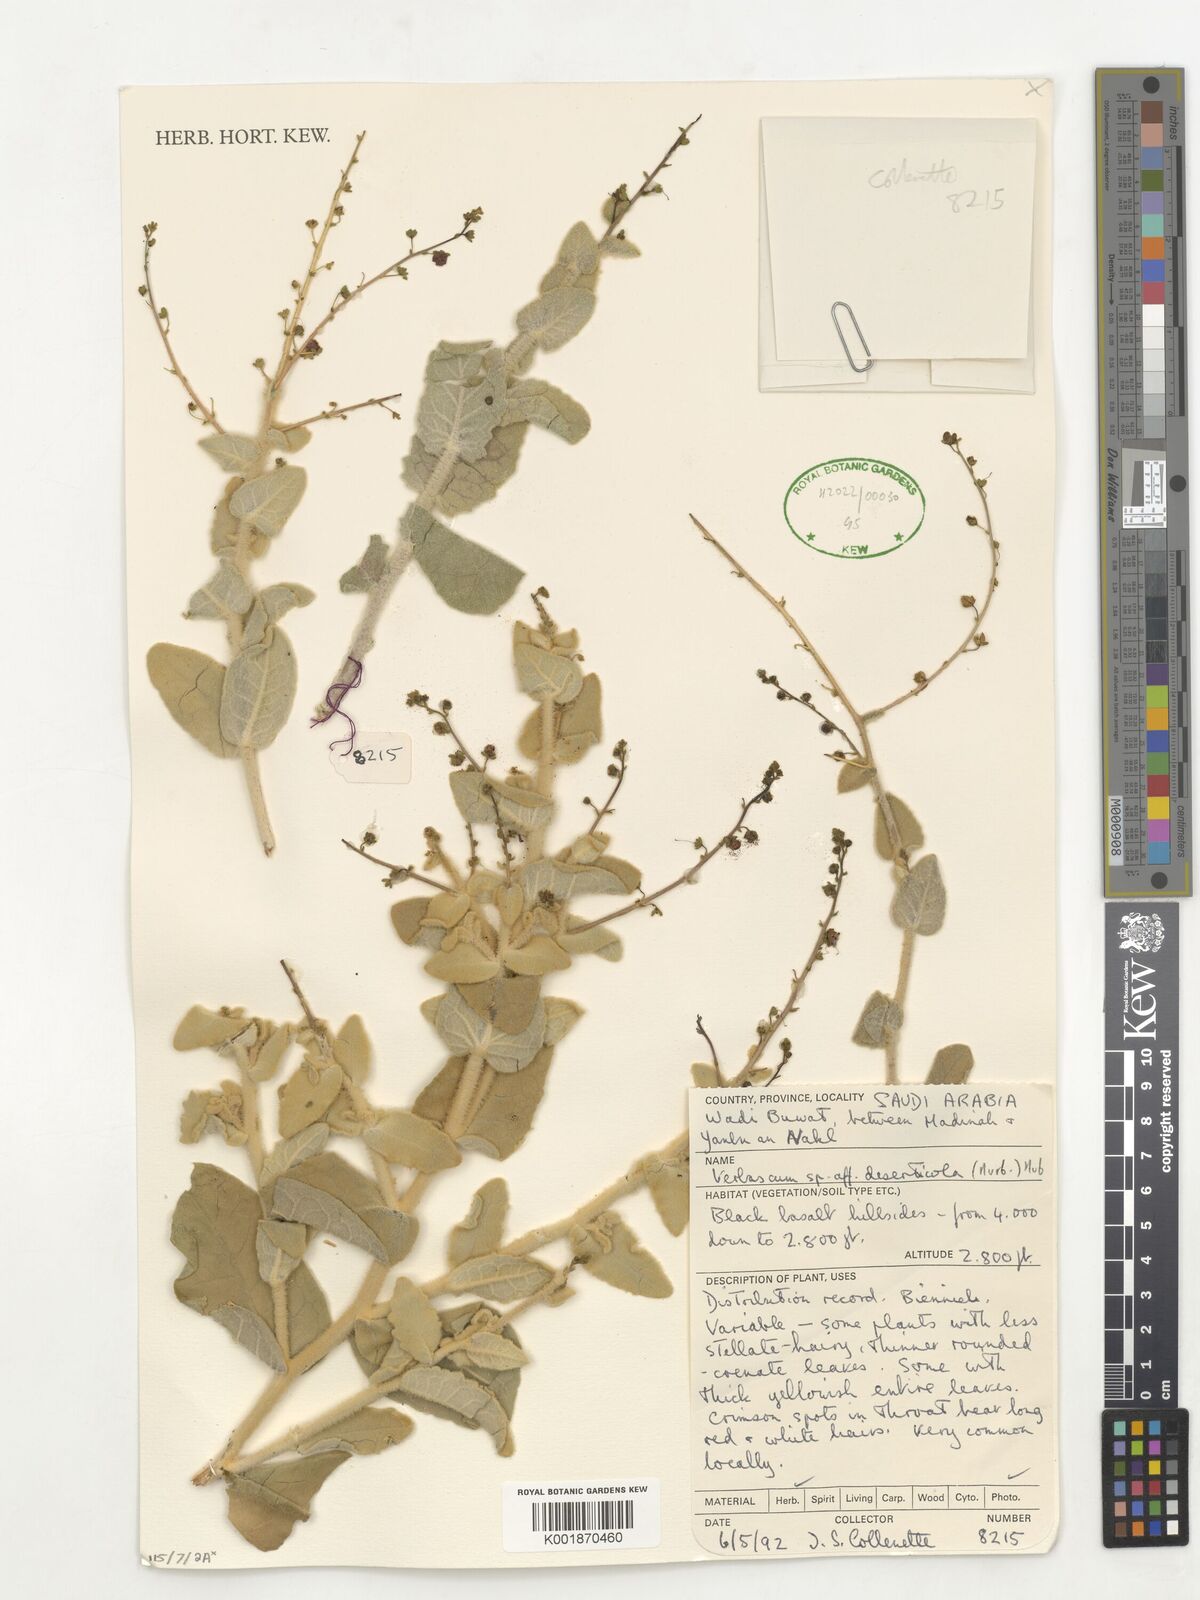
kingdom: Plantae
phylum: Tracheophyta
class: Magnoliopsida
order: Lamiales
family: Scrophulariaceae
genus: Verbascum
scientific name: Verbascum schimperianum
